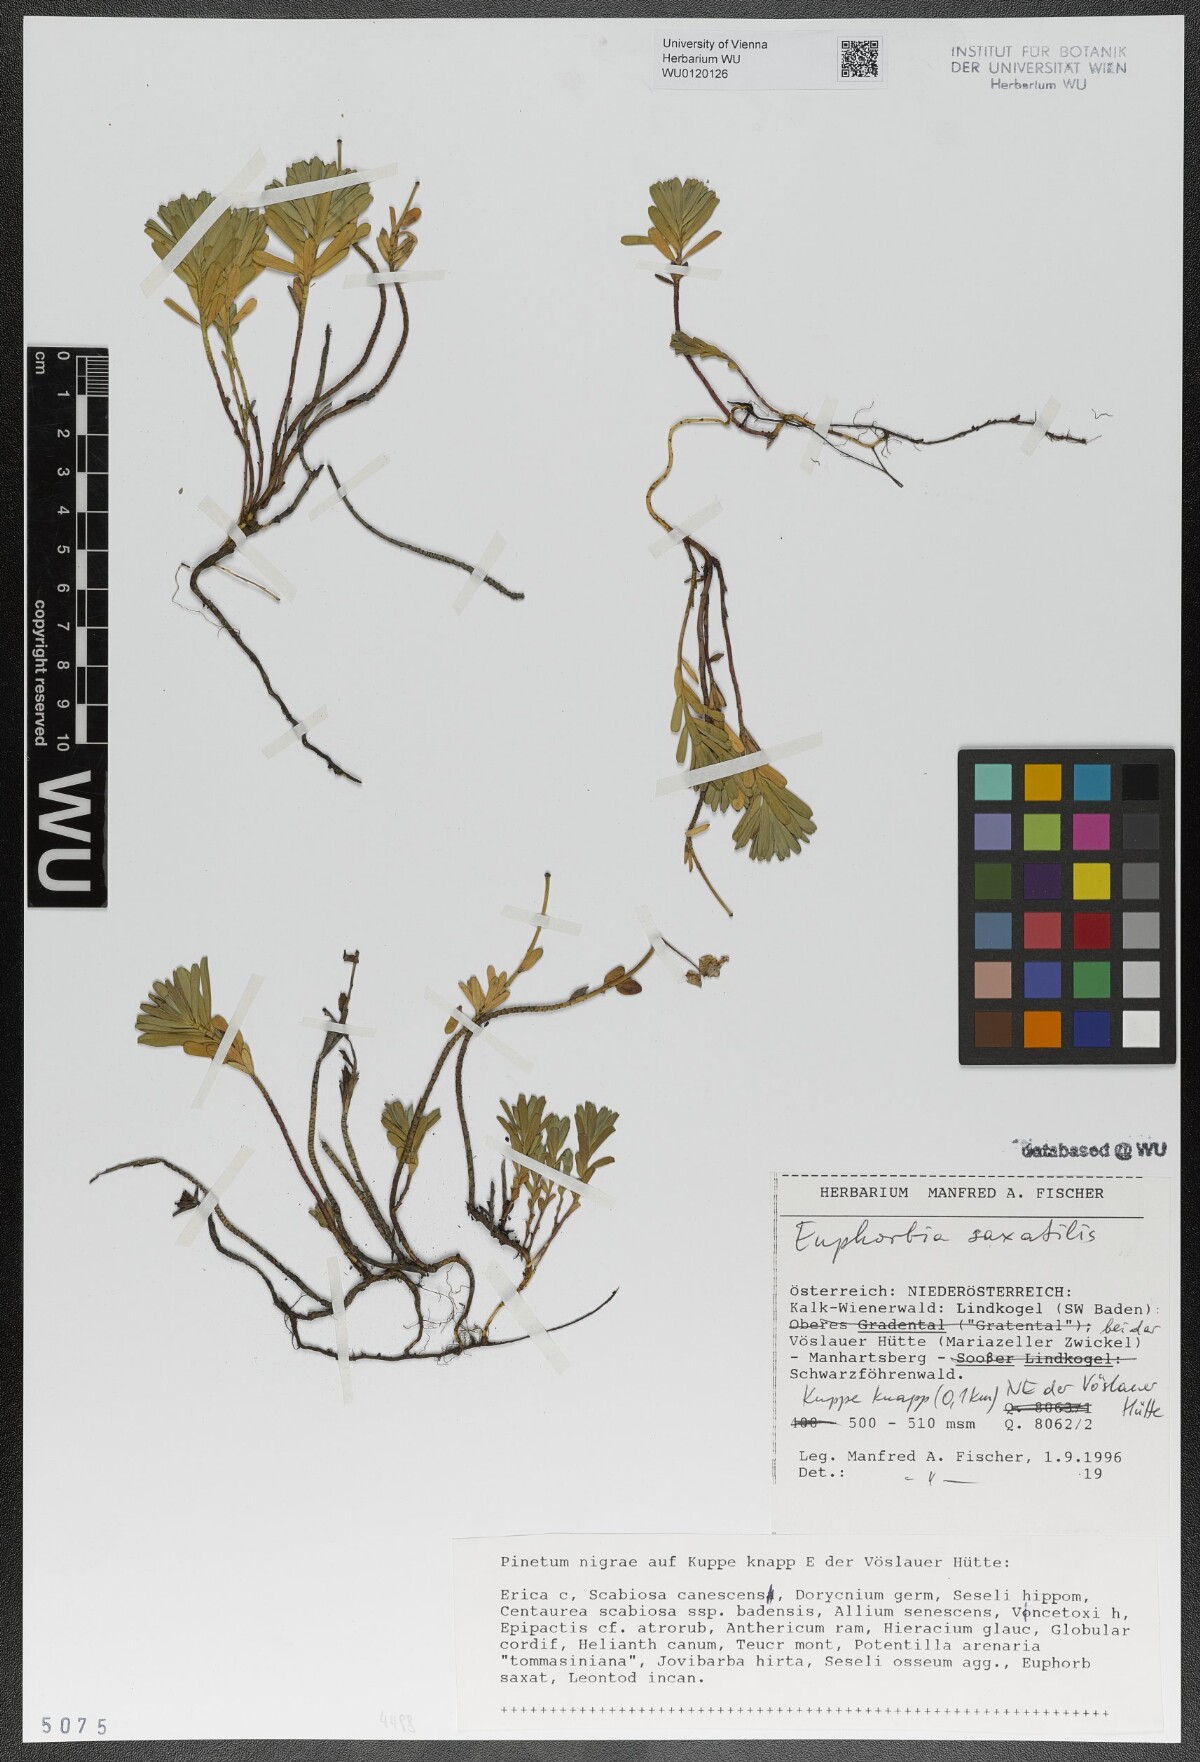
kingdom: Plantae
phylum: Tracheophyta
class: Magnoliopsida
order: Malpighiales
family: Euphorbiaceae
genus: Euphorbia
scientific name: Euphorbia saxatilis
